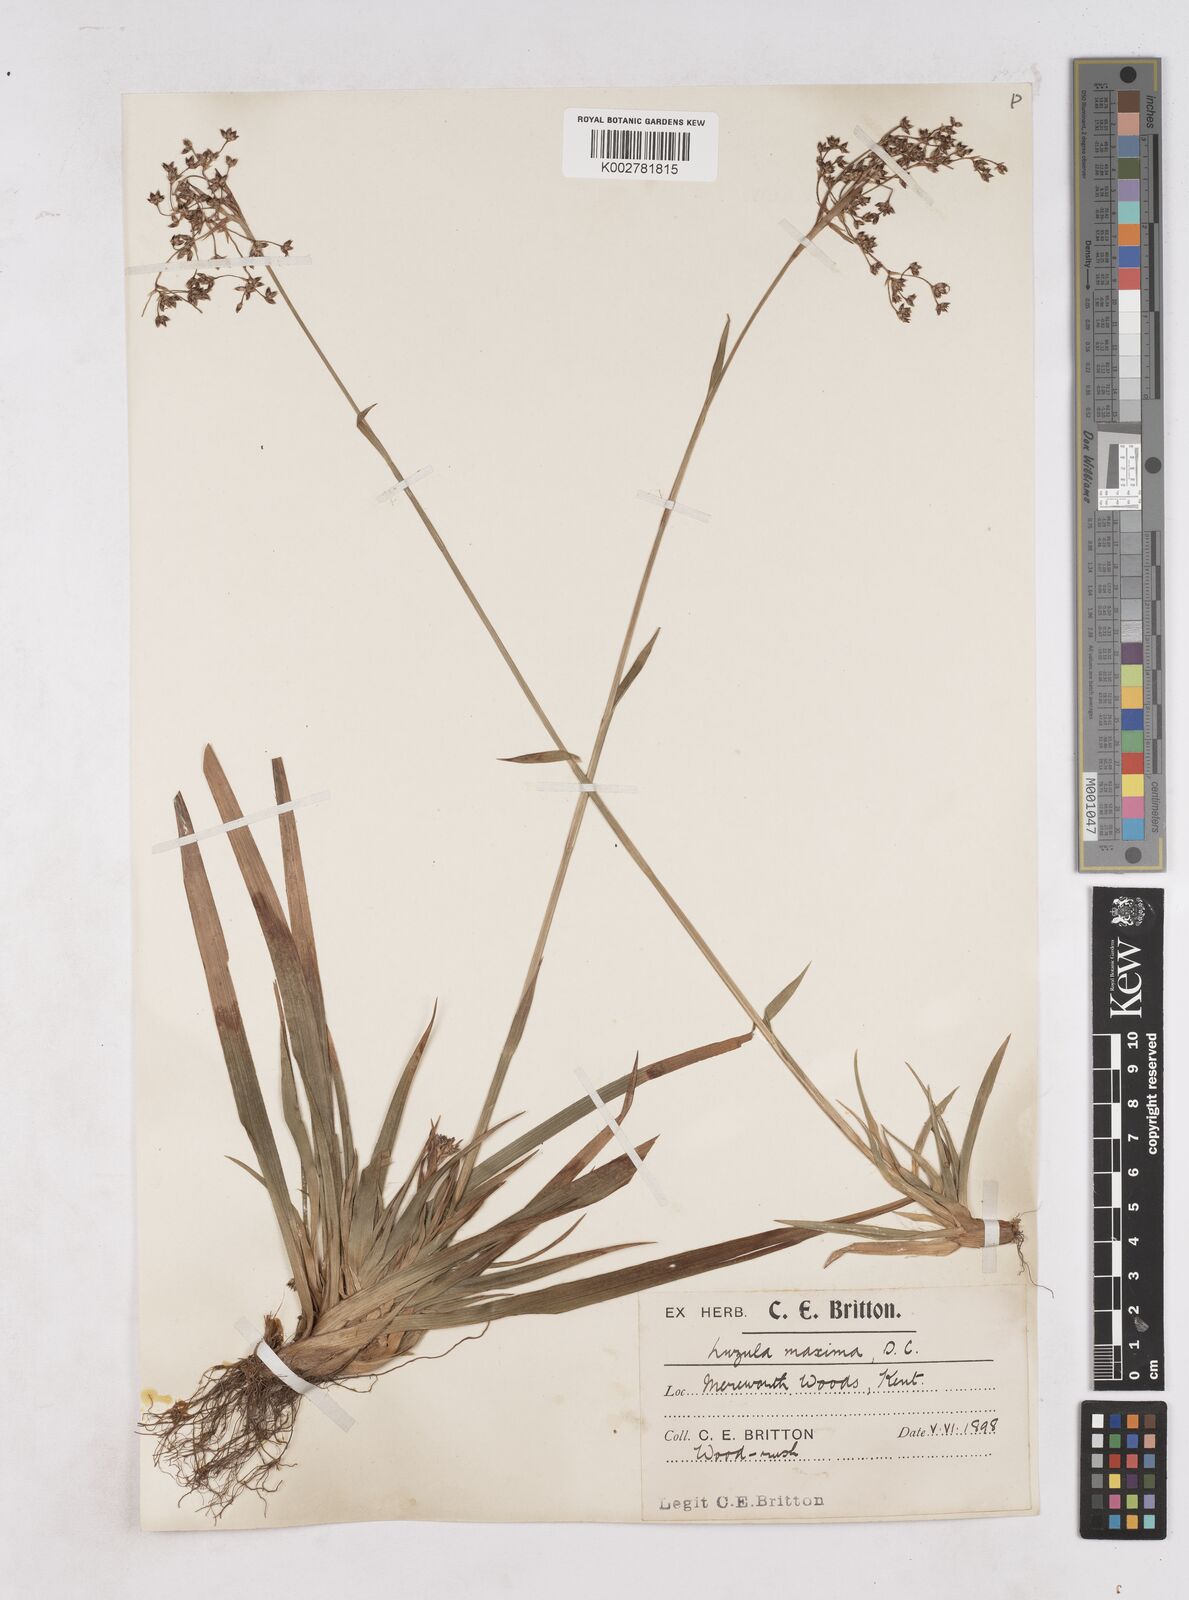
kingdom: Plantae
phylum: Tracheophyta
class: Liliopsida
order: Poales
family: Juncaceae
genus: Luzula
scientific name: Luzula sylvatica
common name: Great wood-rush
